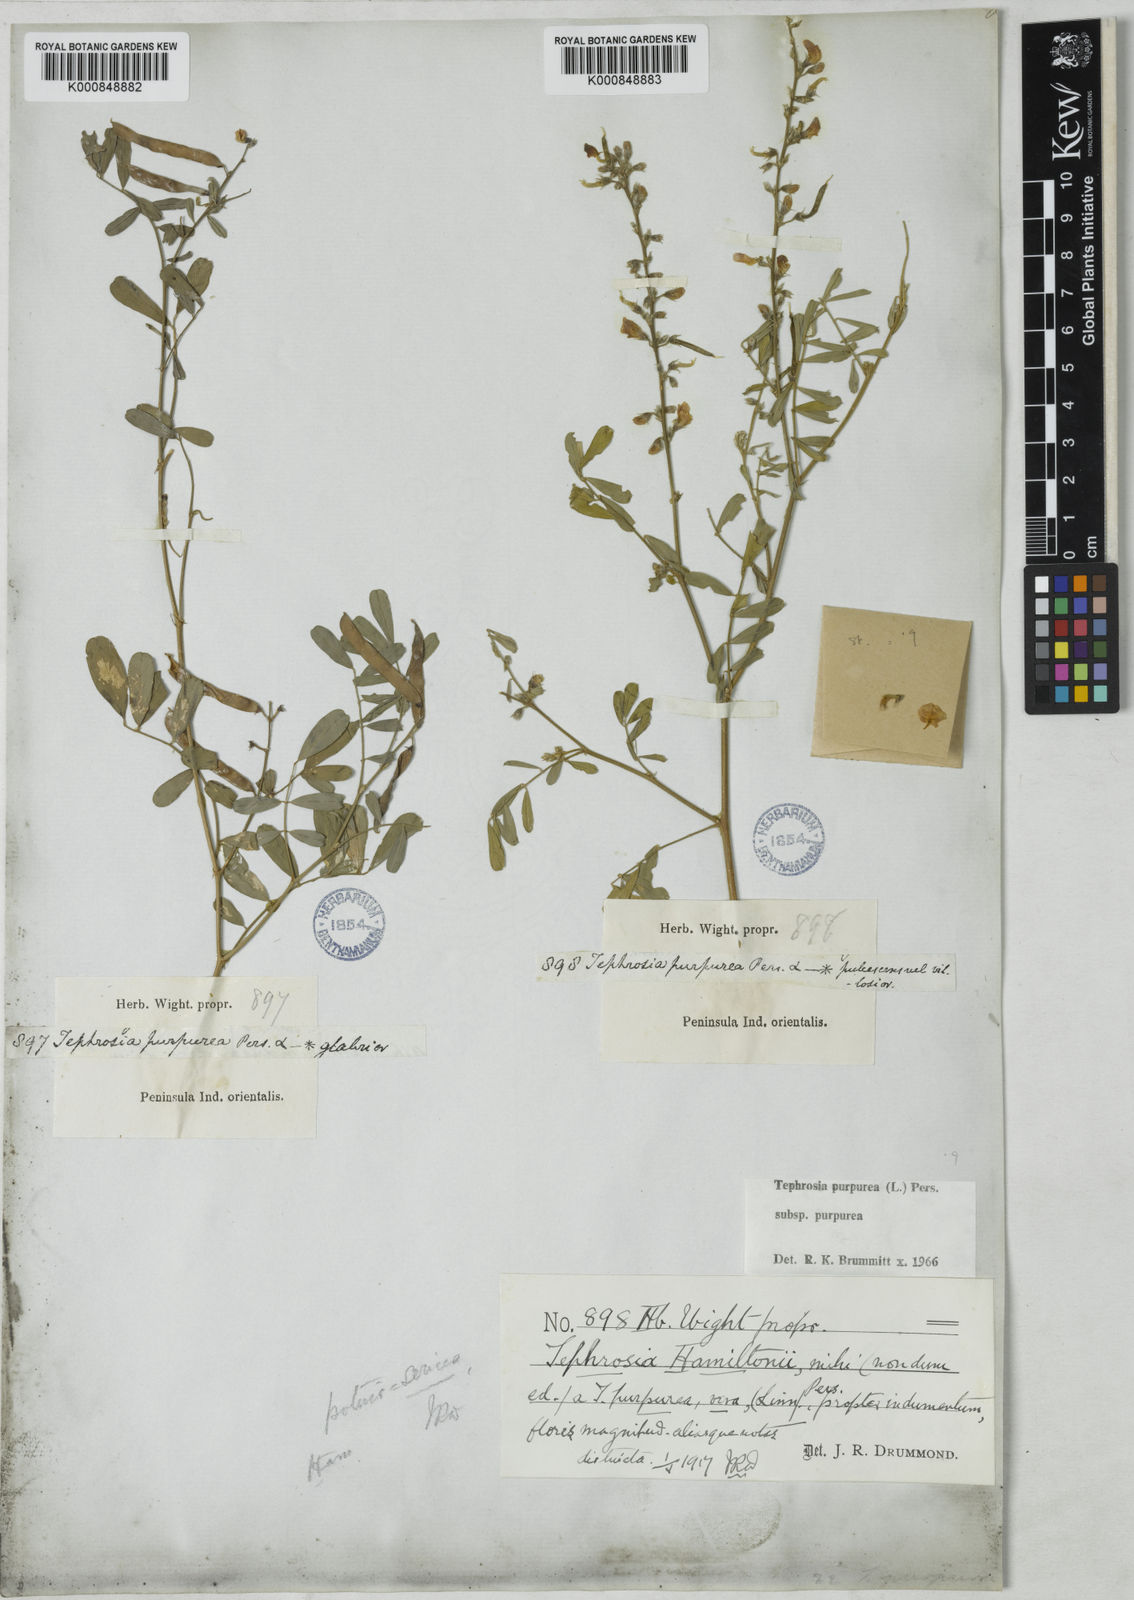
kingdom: Plantae
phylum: Tracheophyta
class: Magnoliopsida
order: Fabales
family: Fabaceae
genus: Tephrosia
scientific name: Tephrosia purpurea
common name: Fishpoison
